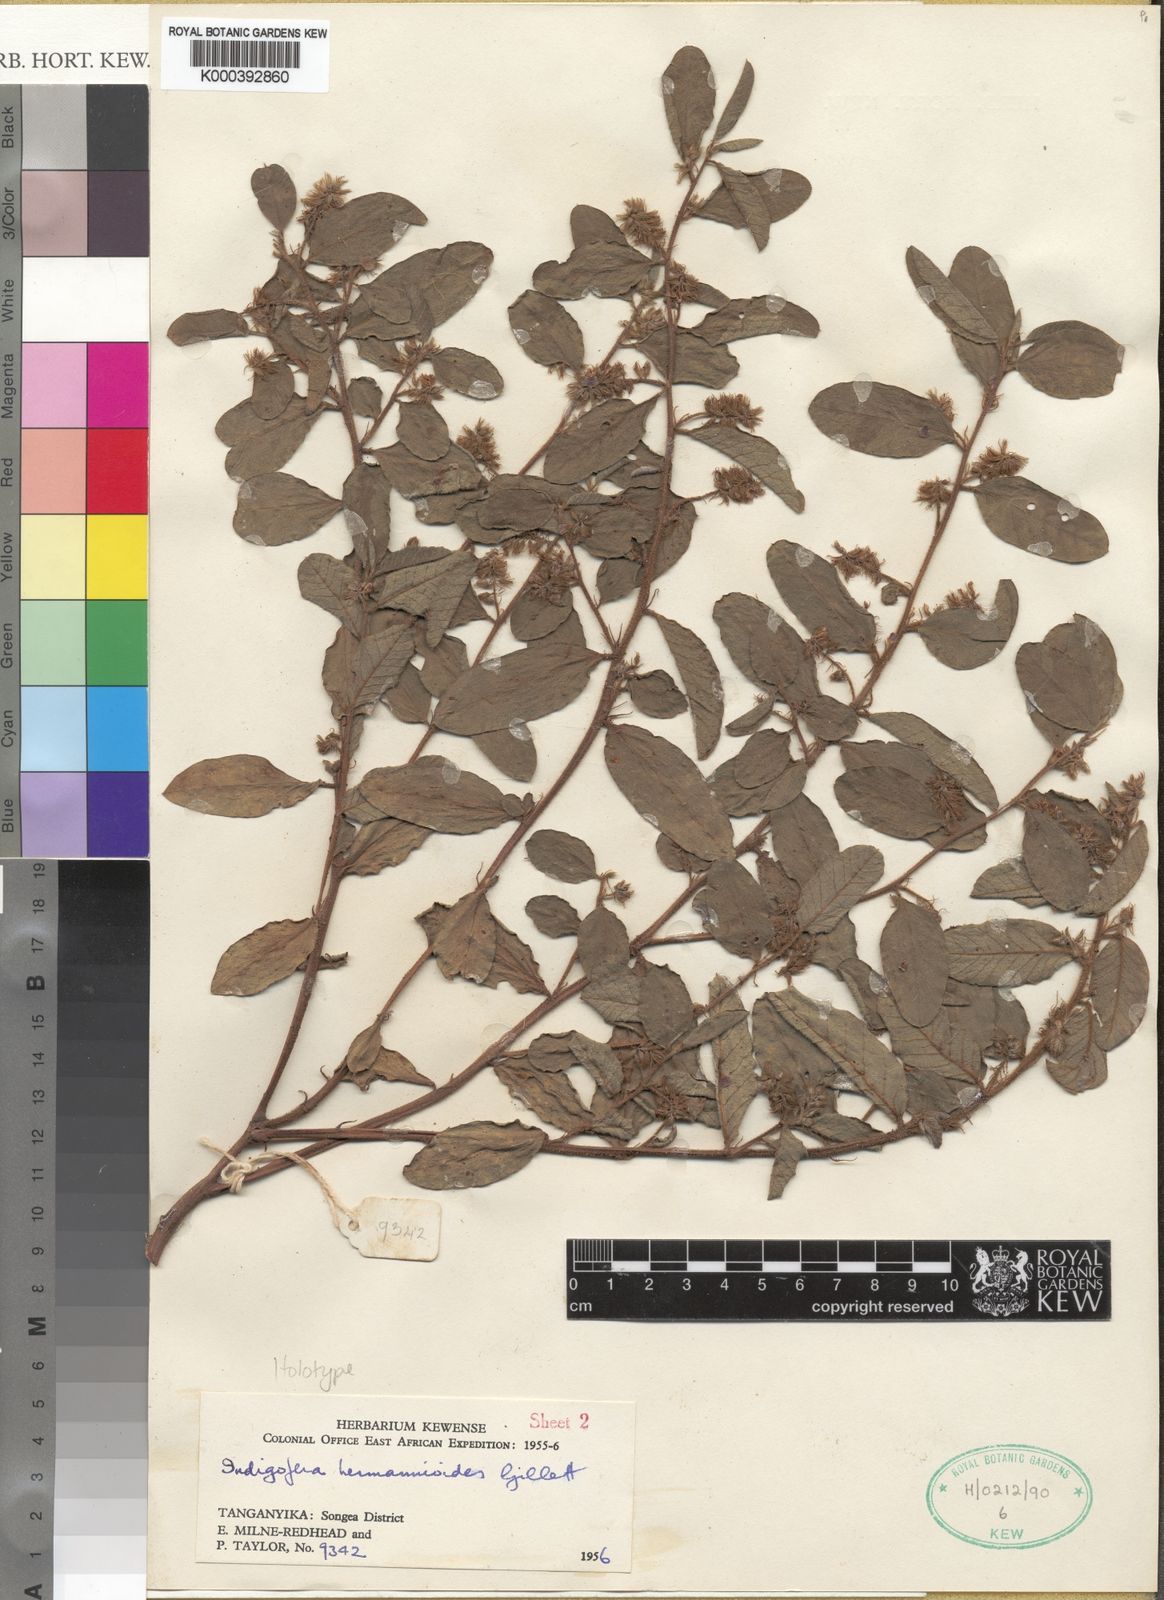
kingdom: Plantae
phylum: Tracheophyta
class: Magnoliopsida
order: Fabales
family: Fabaceae
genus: Indigofera
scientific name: Indigofera hermannioides
